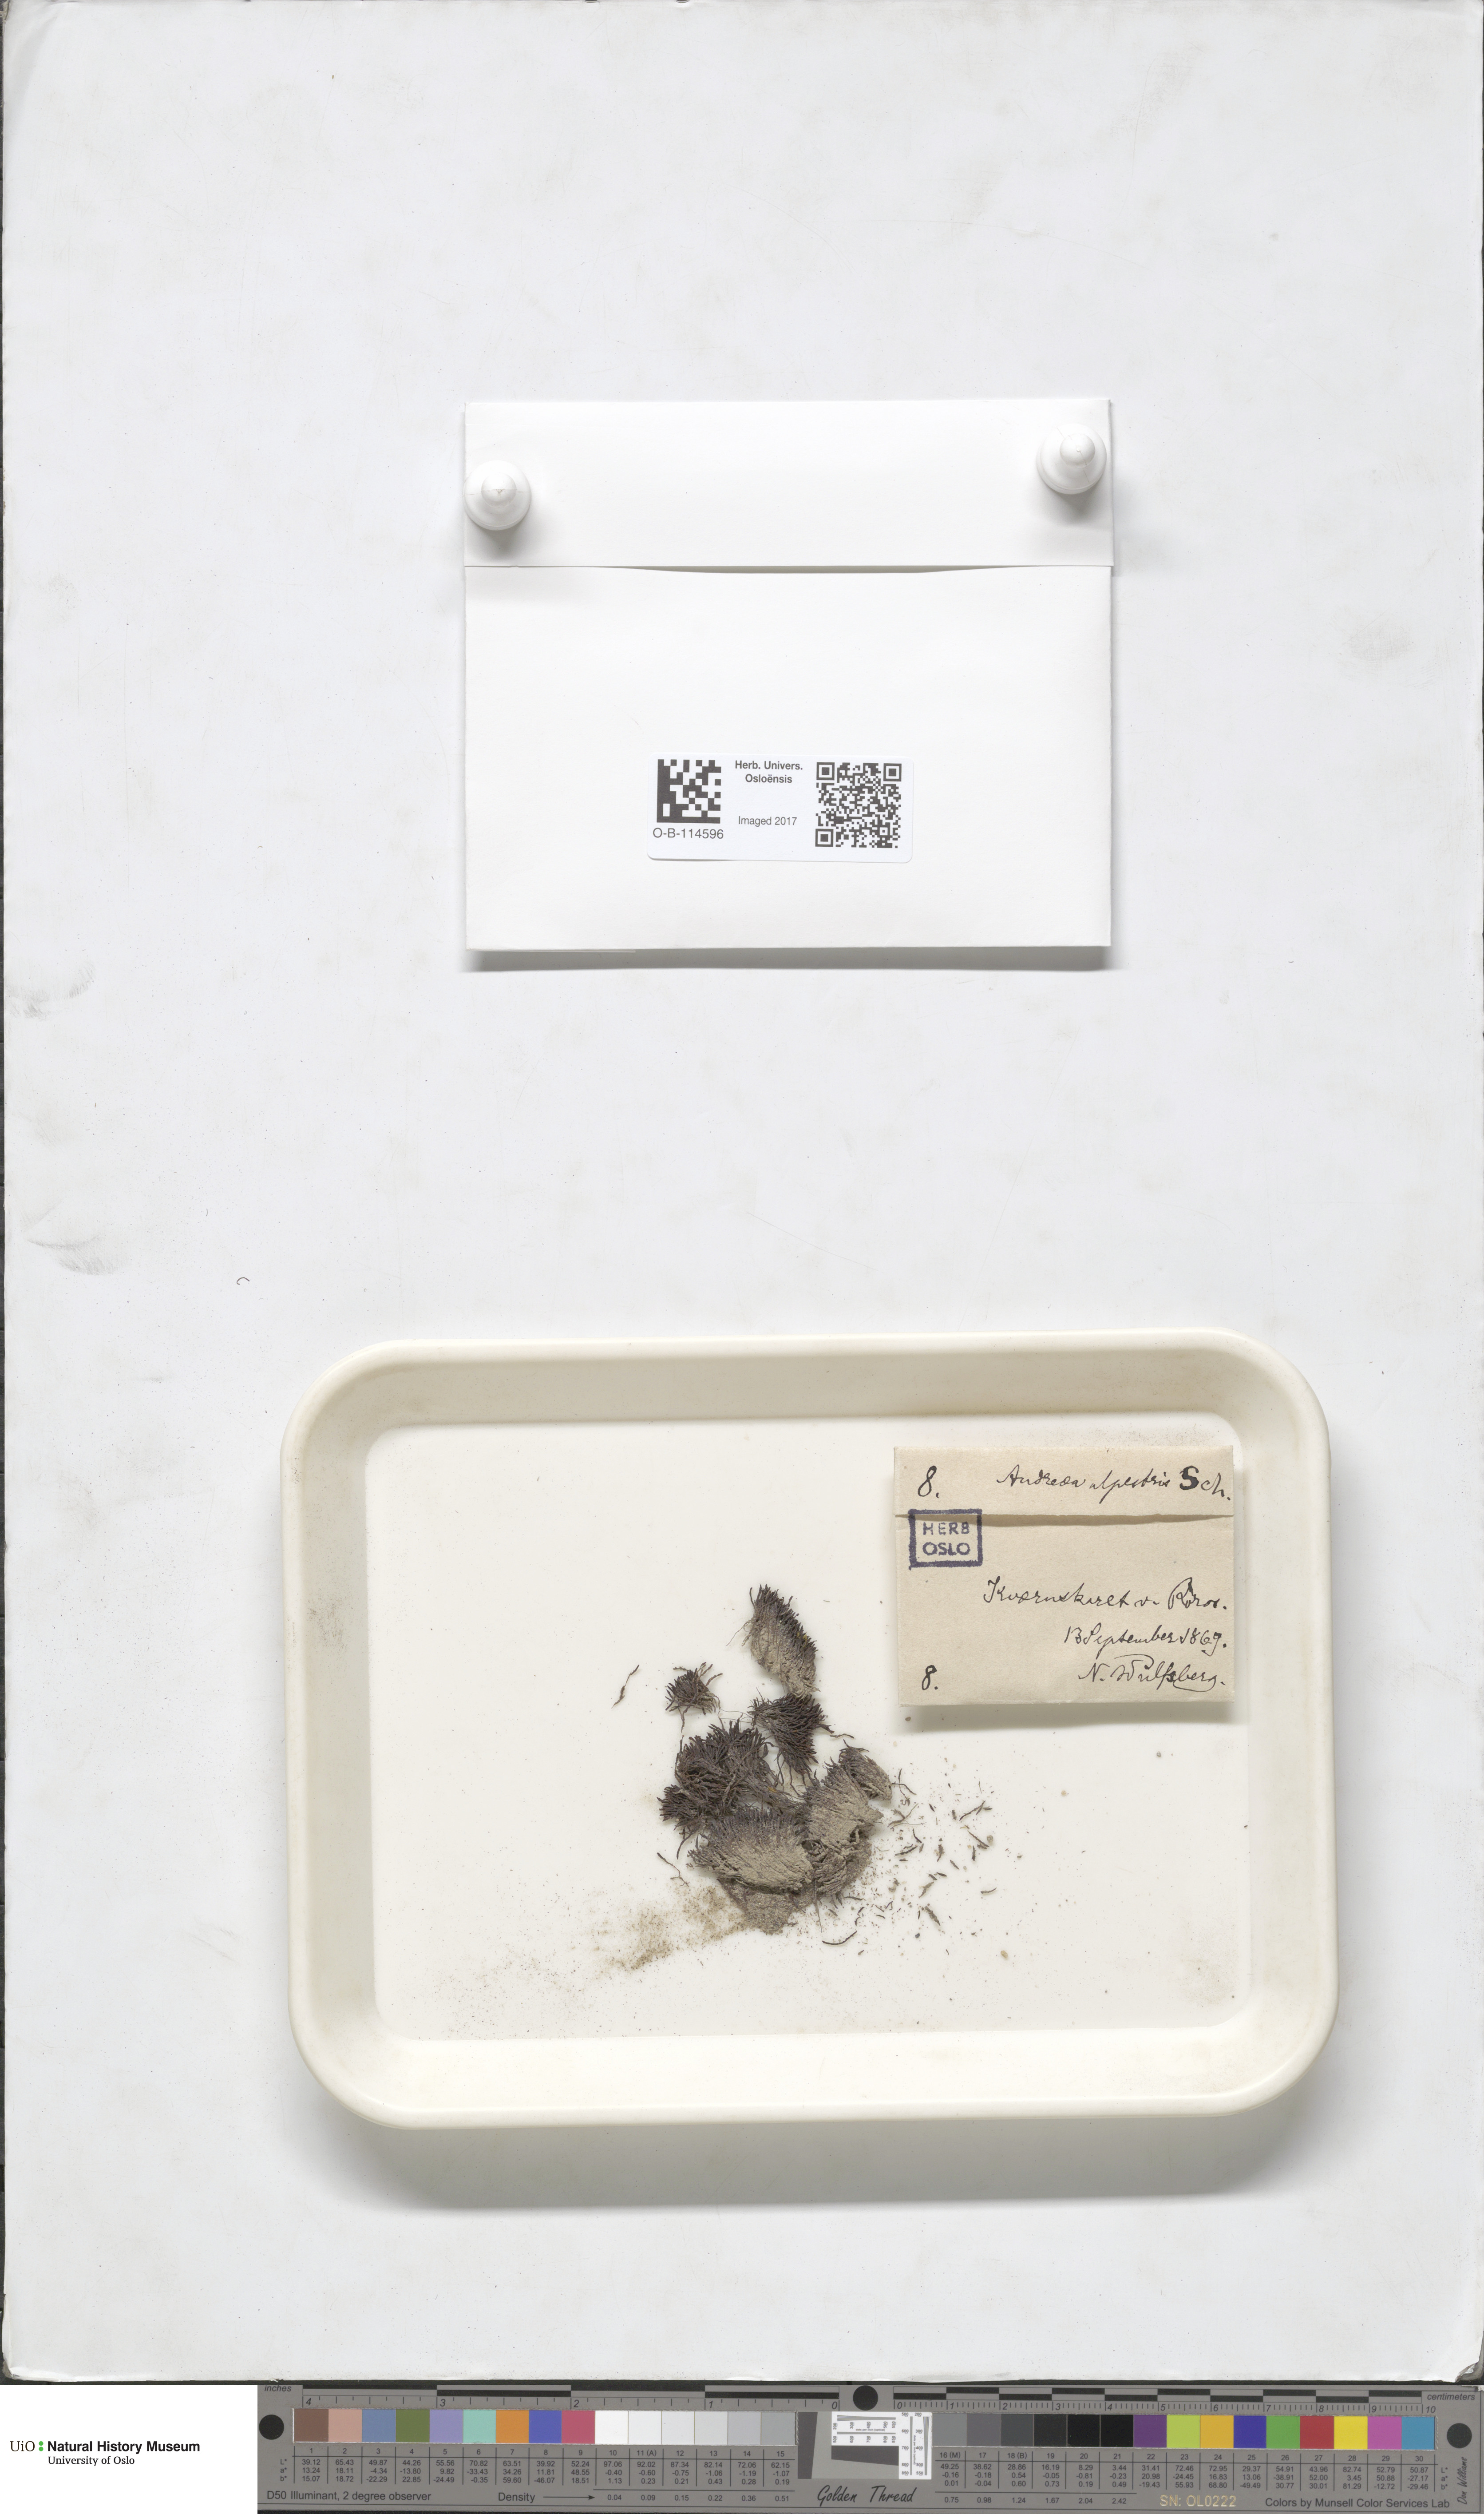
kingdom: Plantae
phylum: Bryophyta
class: Andreaeopsida
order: Andreaeales
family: Andreaeaceae
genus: Andreaea
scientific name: Andreaea alpestris
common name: Slender rock-moss
